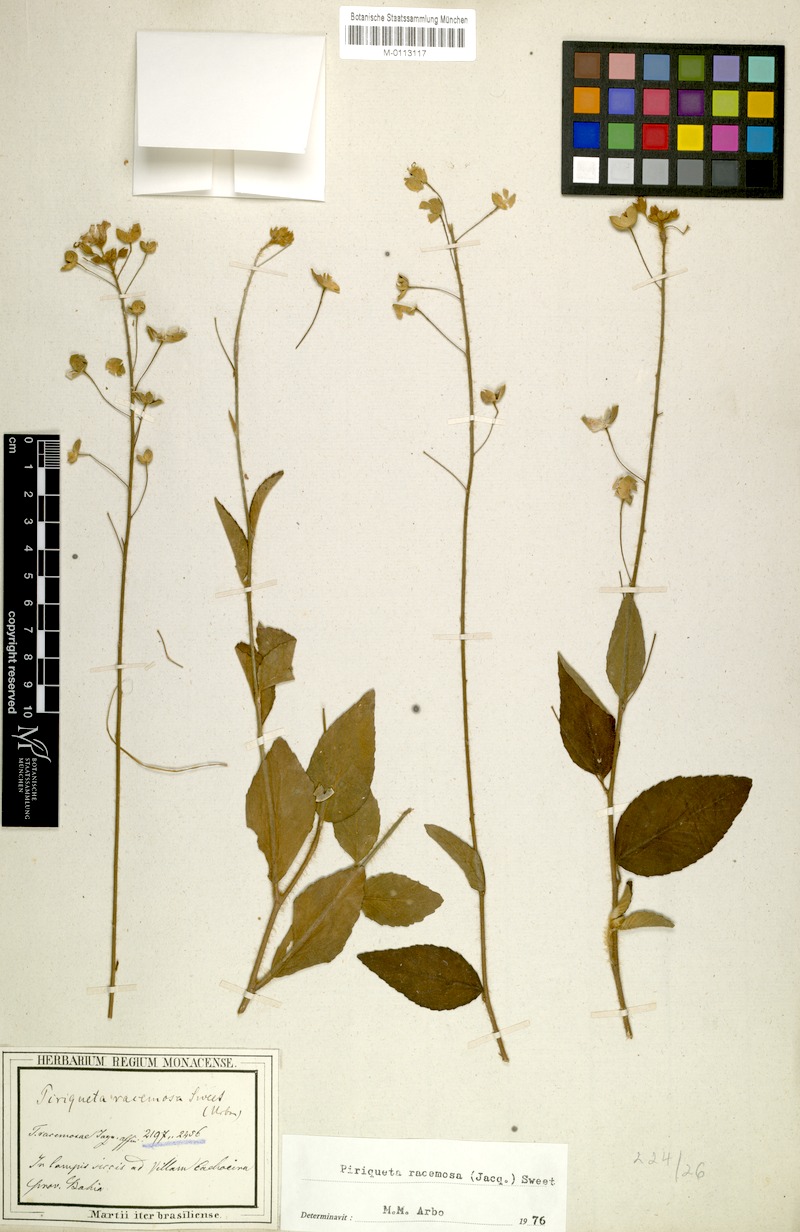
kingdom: Plantae
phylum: Tracheophyta
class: Magnoliopsida
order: Malpighiales
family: Turneraceae
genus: Piriqueta
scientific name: Piriqueta racemosa
